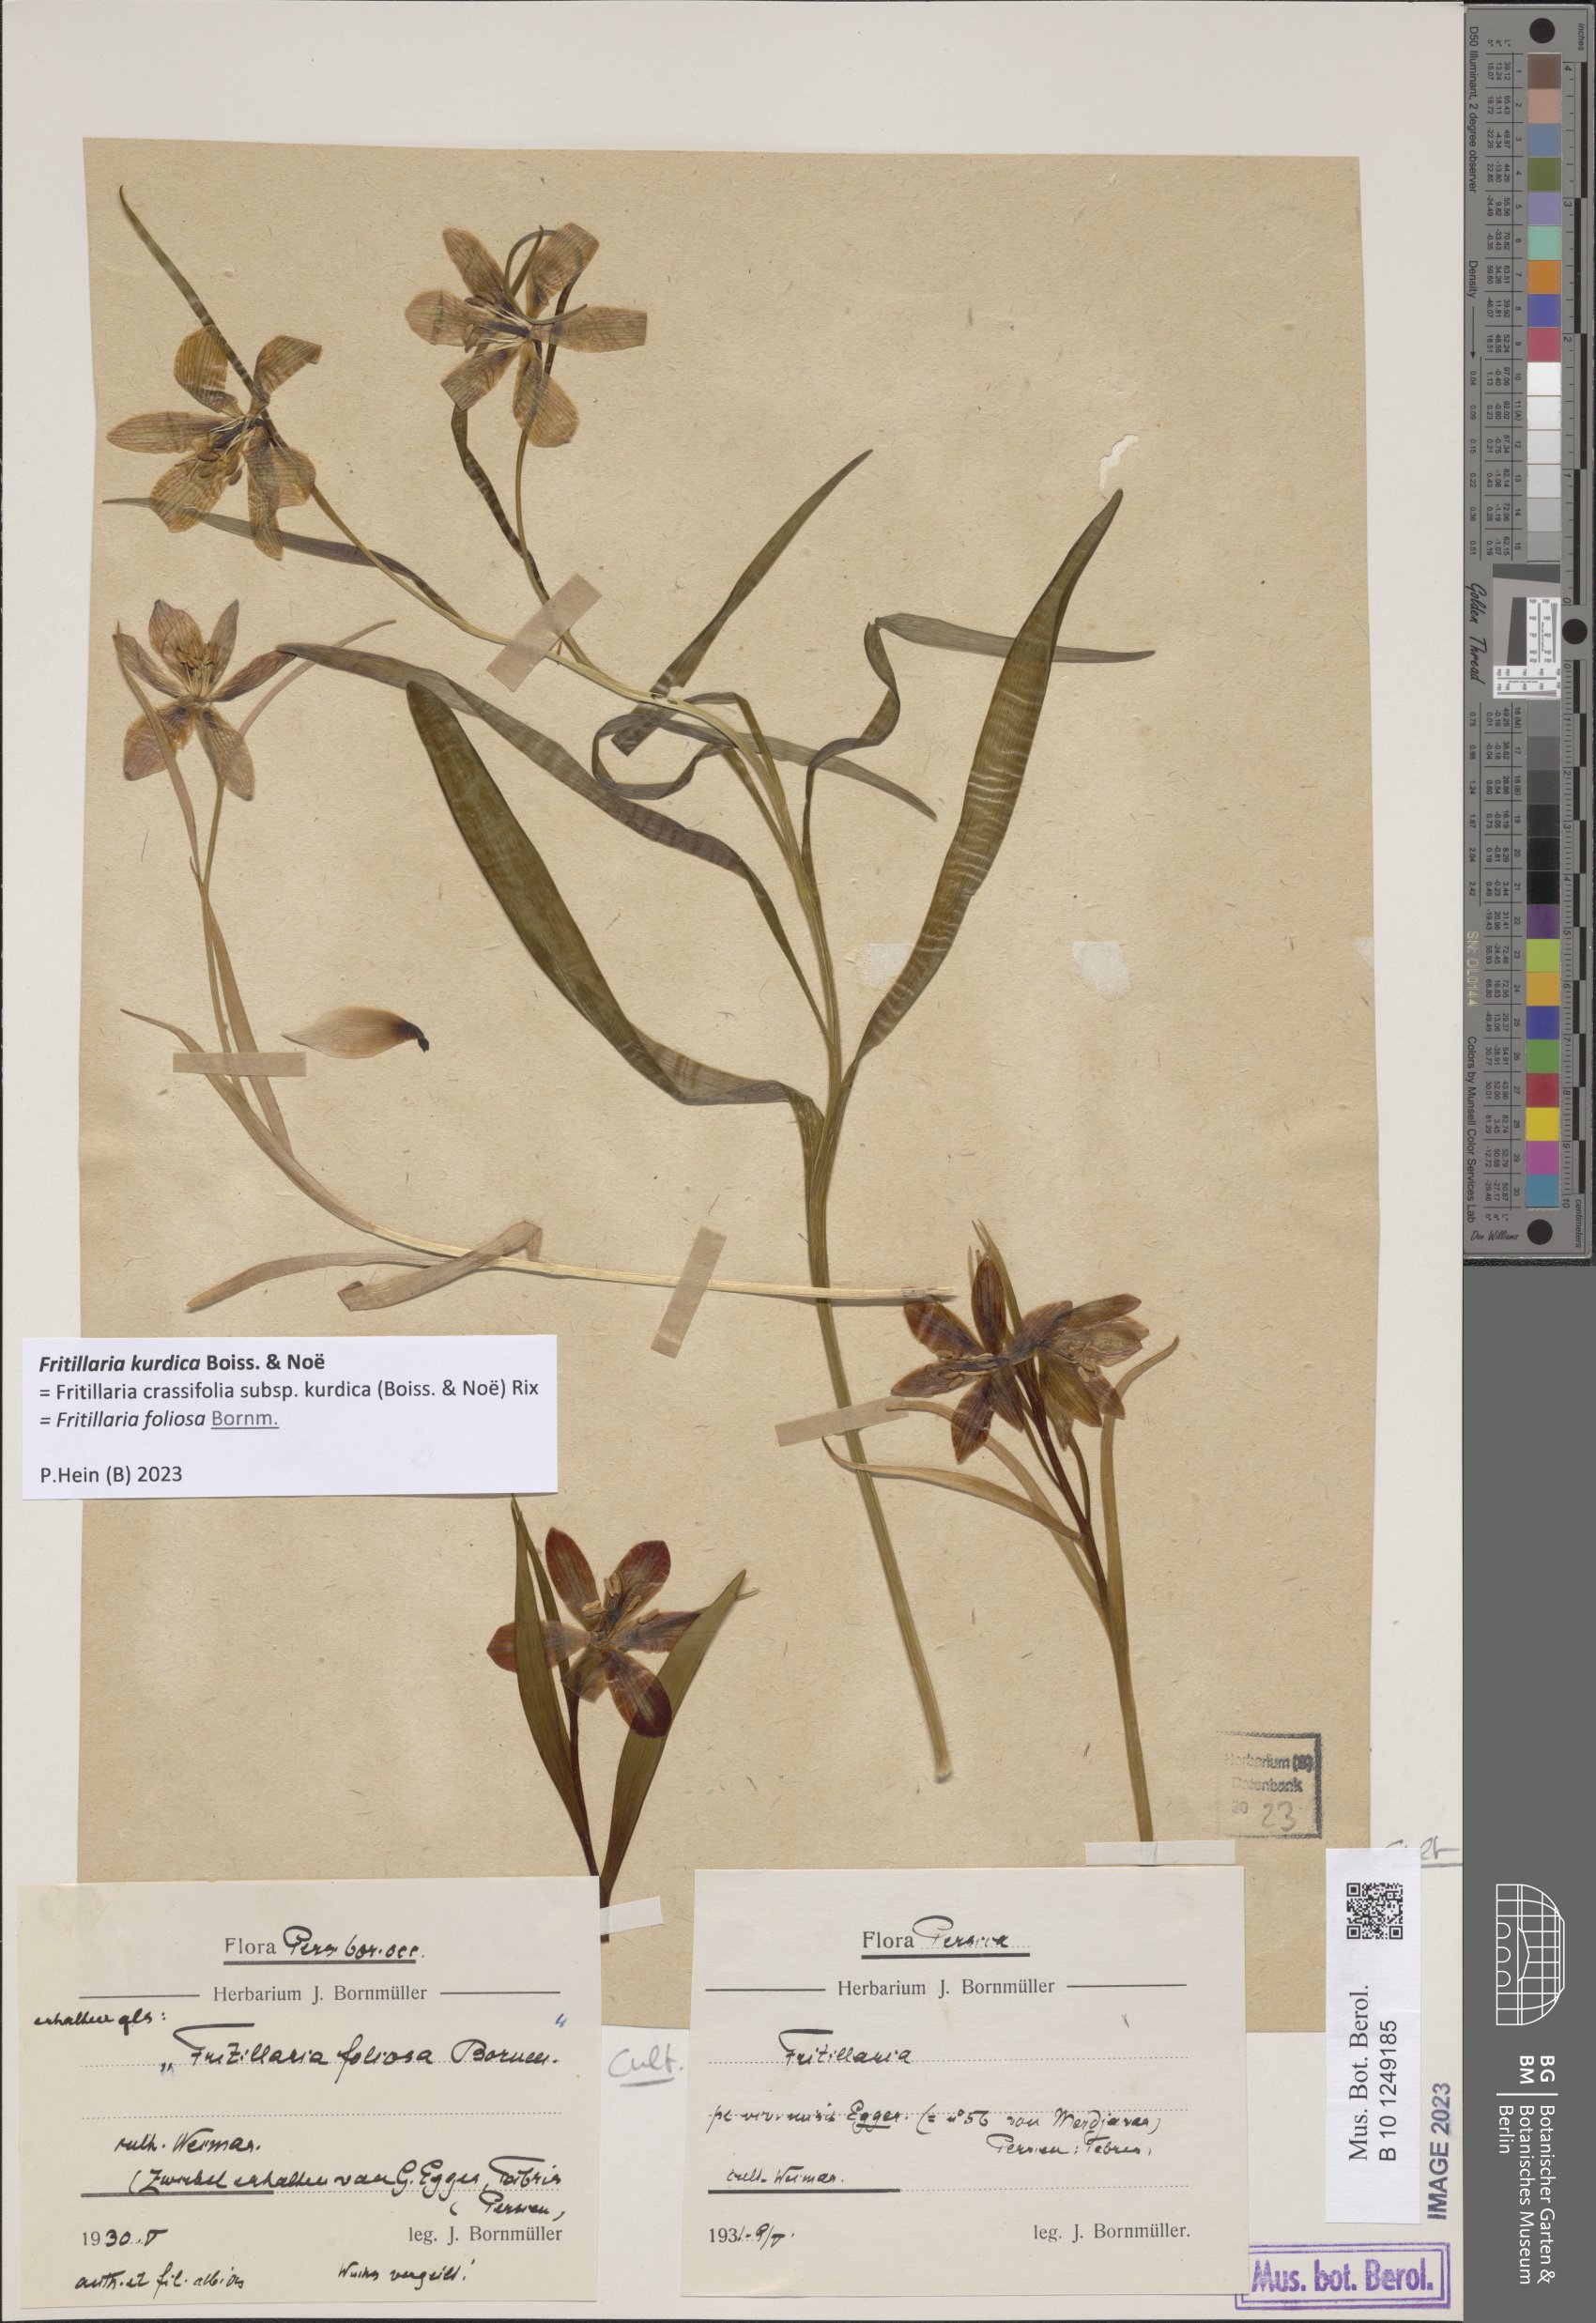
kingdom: Plantae
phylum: Tracheophyta
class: Liliopsida
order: Liliales
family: Liliaceae
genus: Fritillaria
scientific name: Fritillaria kurdica
